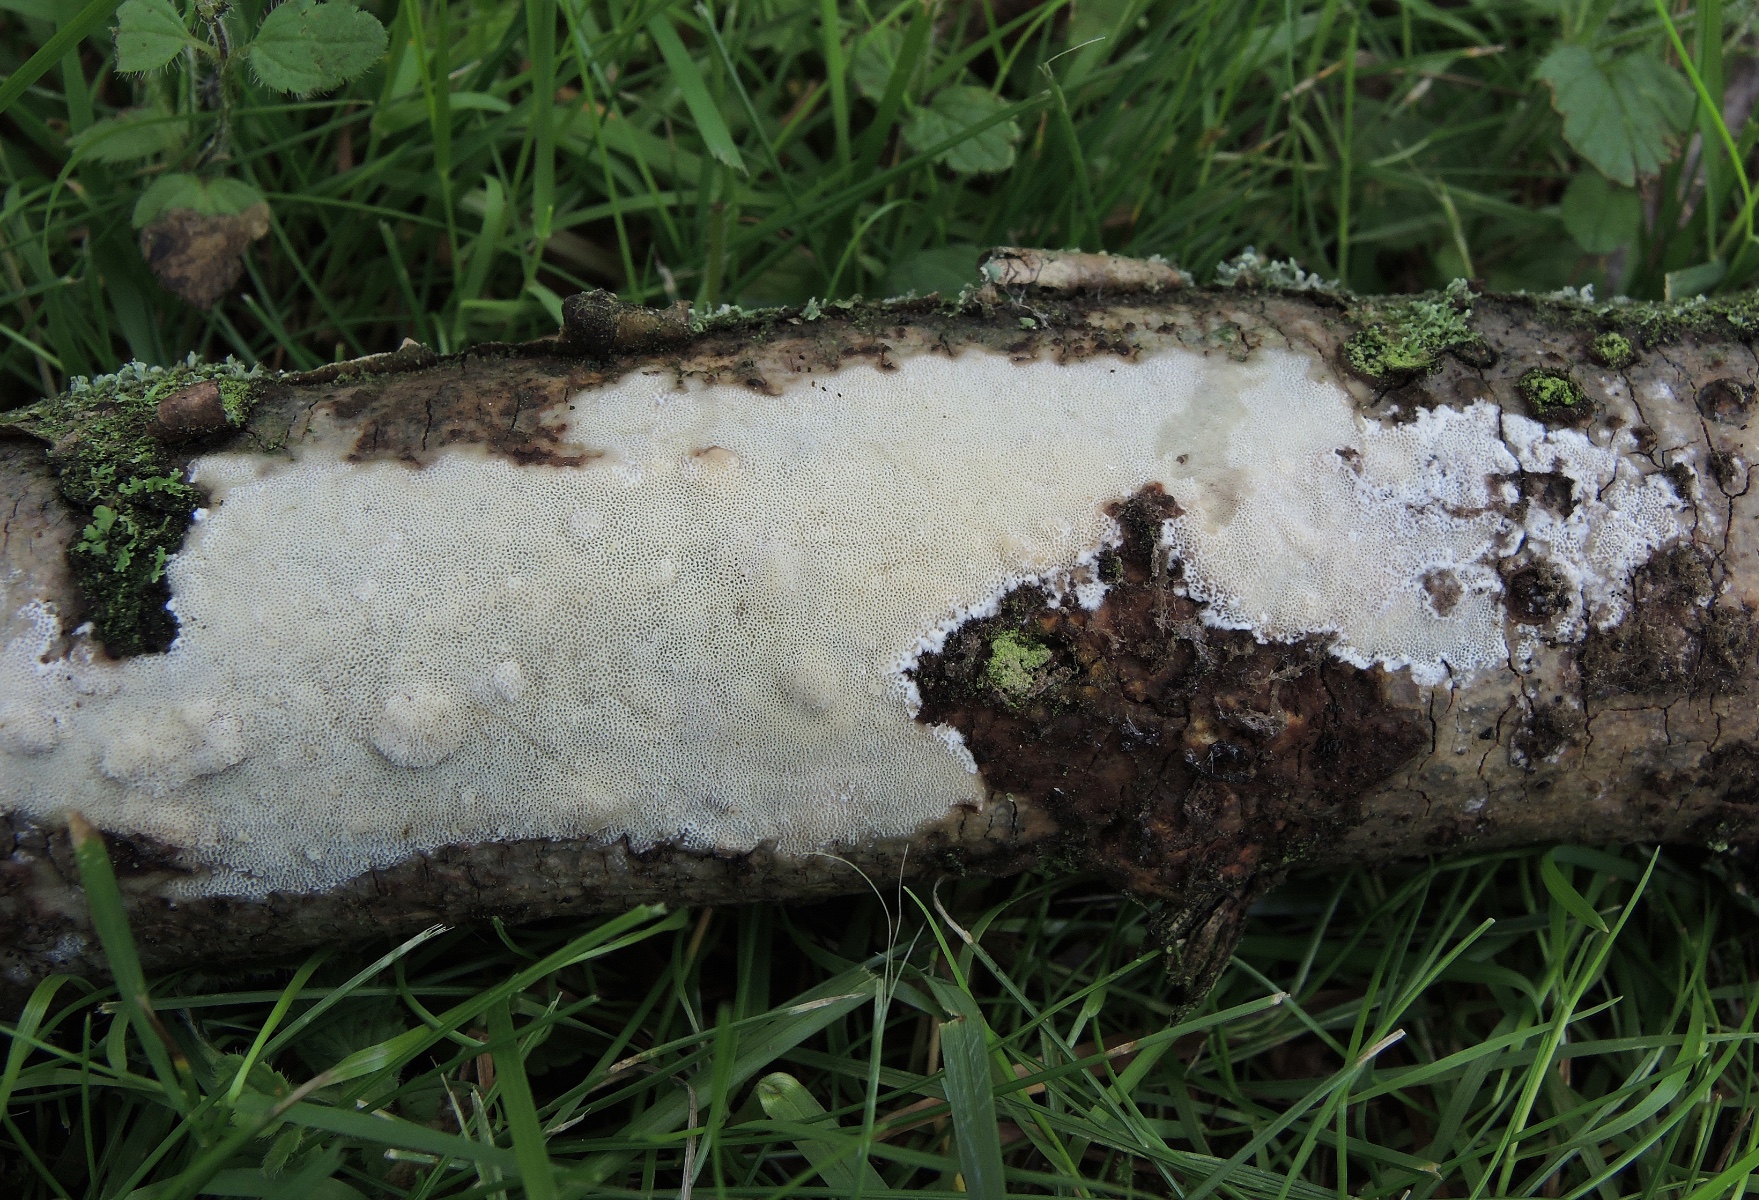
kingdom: Fungi
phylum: Basidiomycota
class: Agaricomycetes
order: Polyporales
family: Steccherinaceae
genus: Antrodiella
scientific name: Antrodiella romellii
